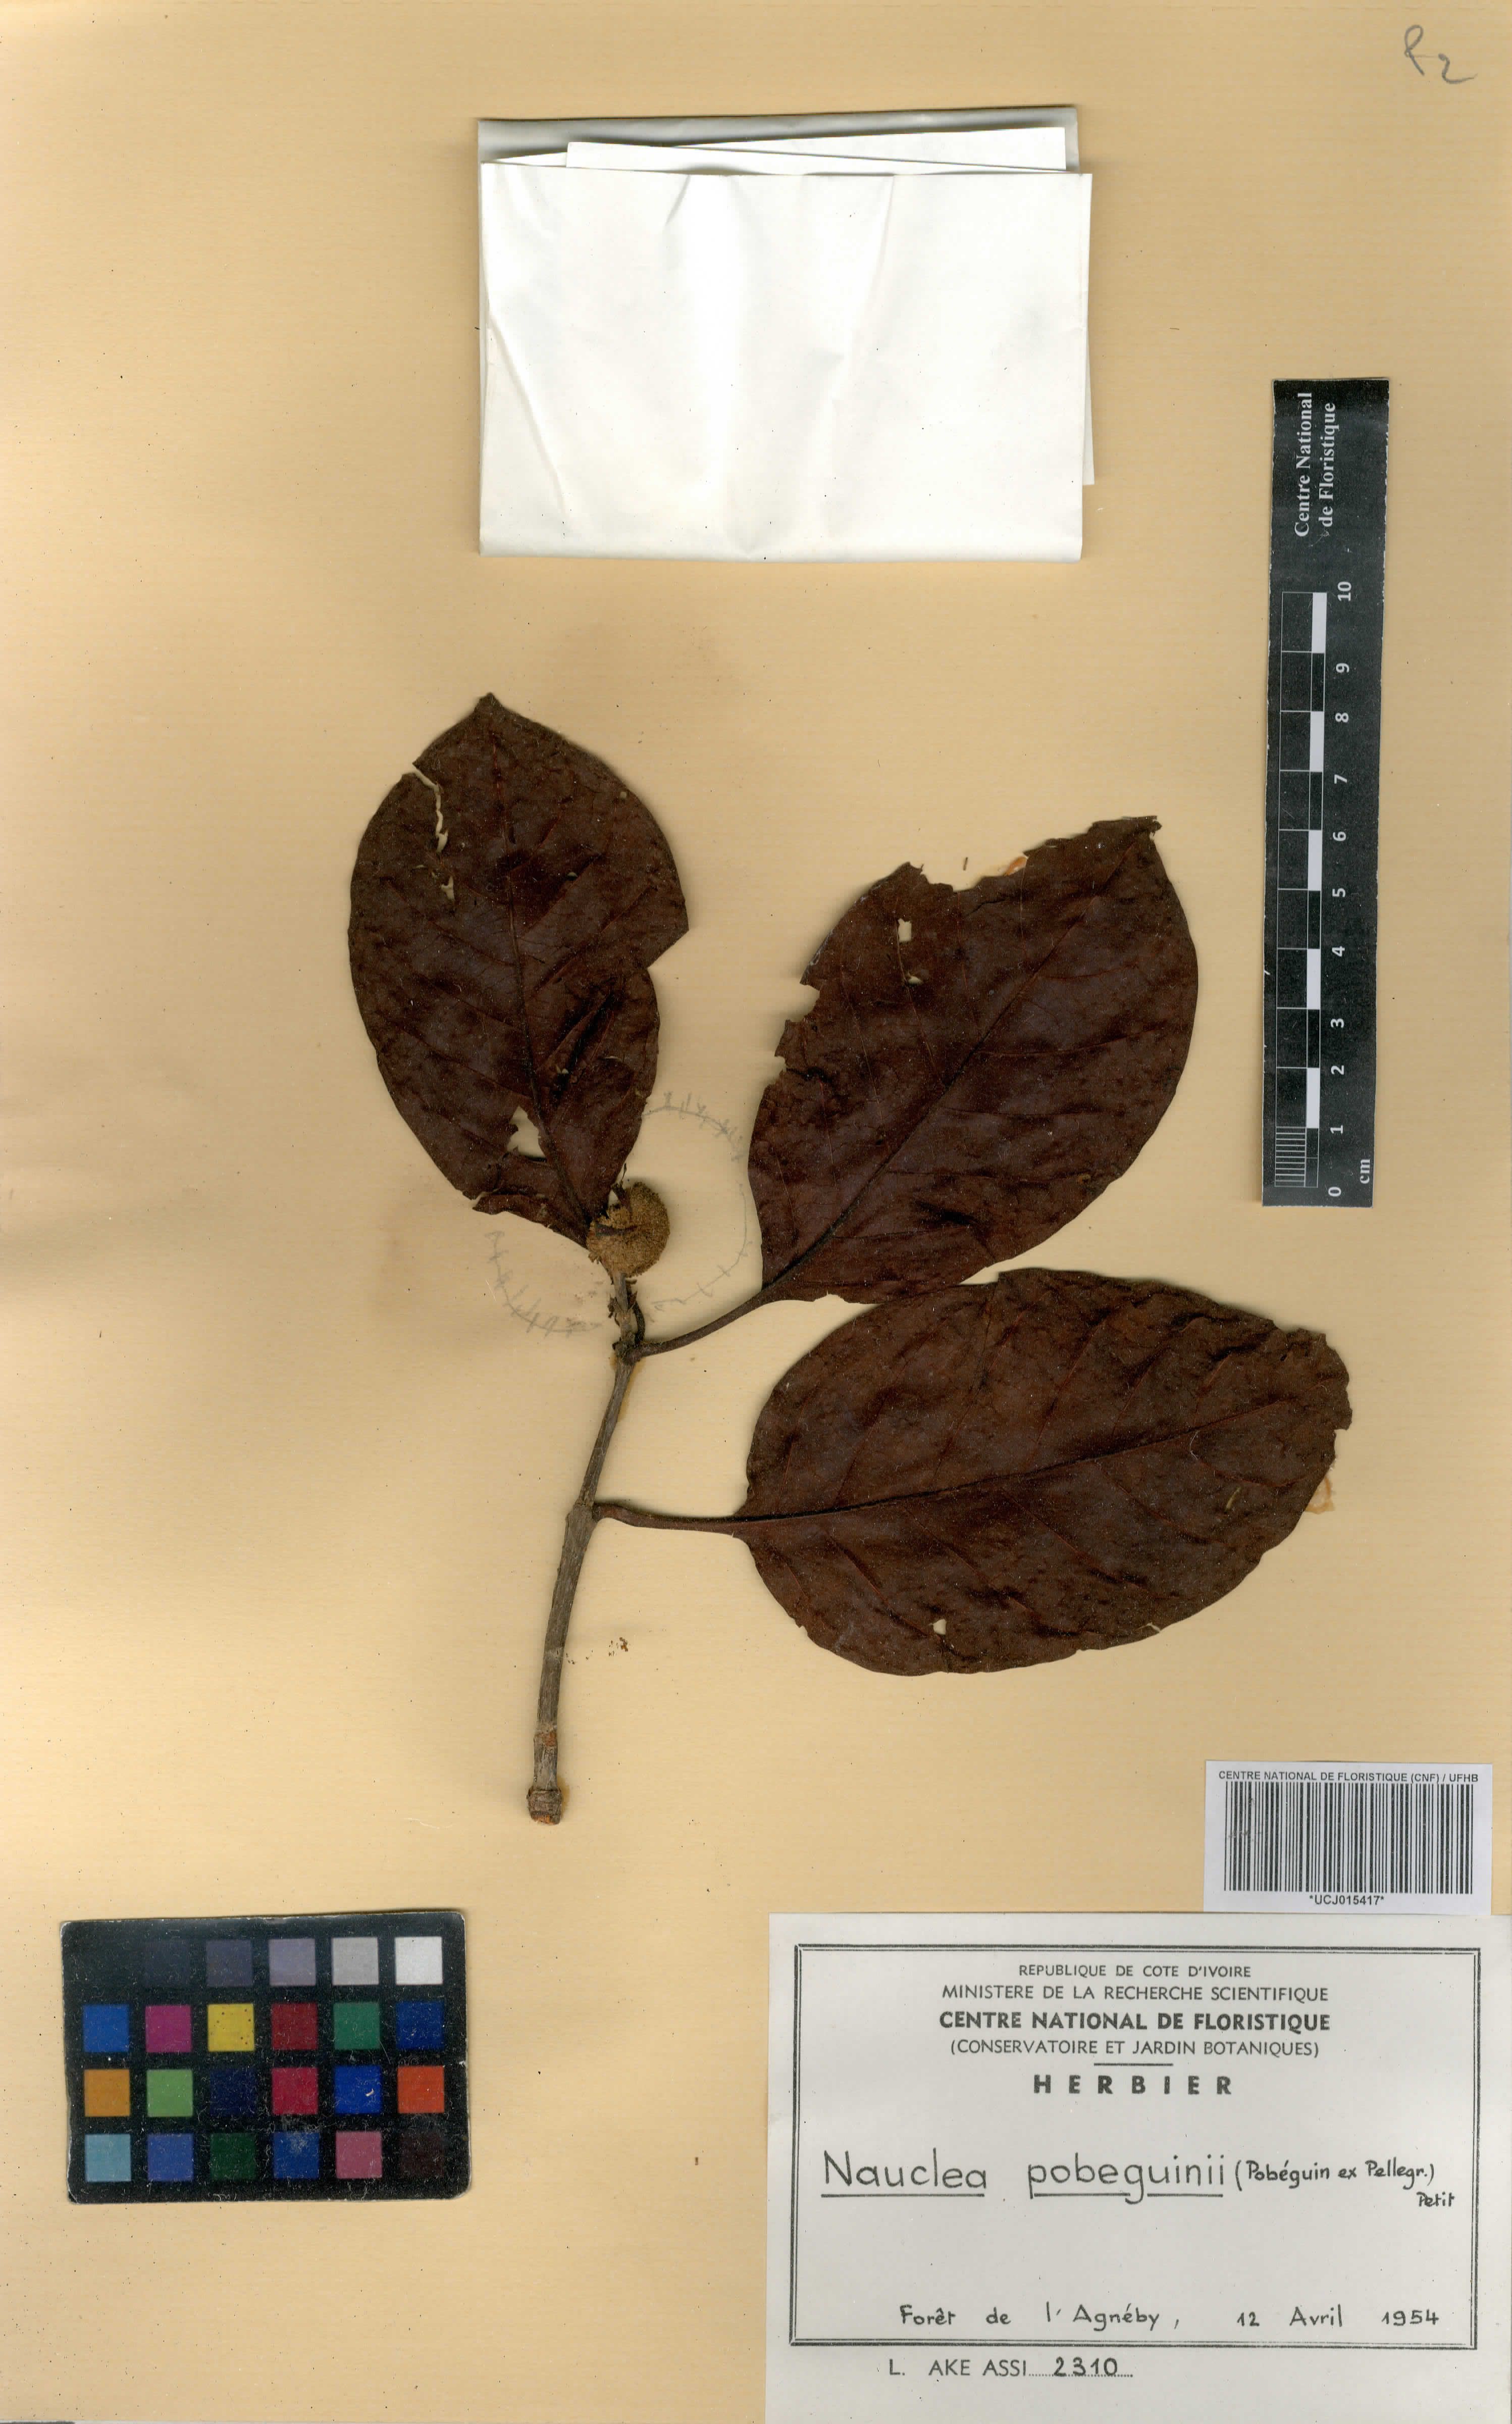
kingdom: Plantae
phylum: Tracheophyta
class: Magnoliopsida
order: Gentianales
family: Rubiaceae
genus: Nauclea
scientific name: Nauclea pobeguinii
